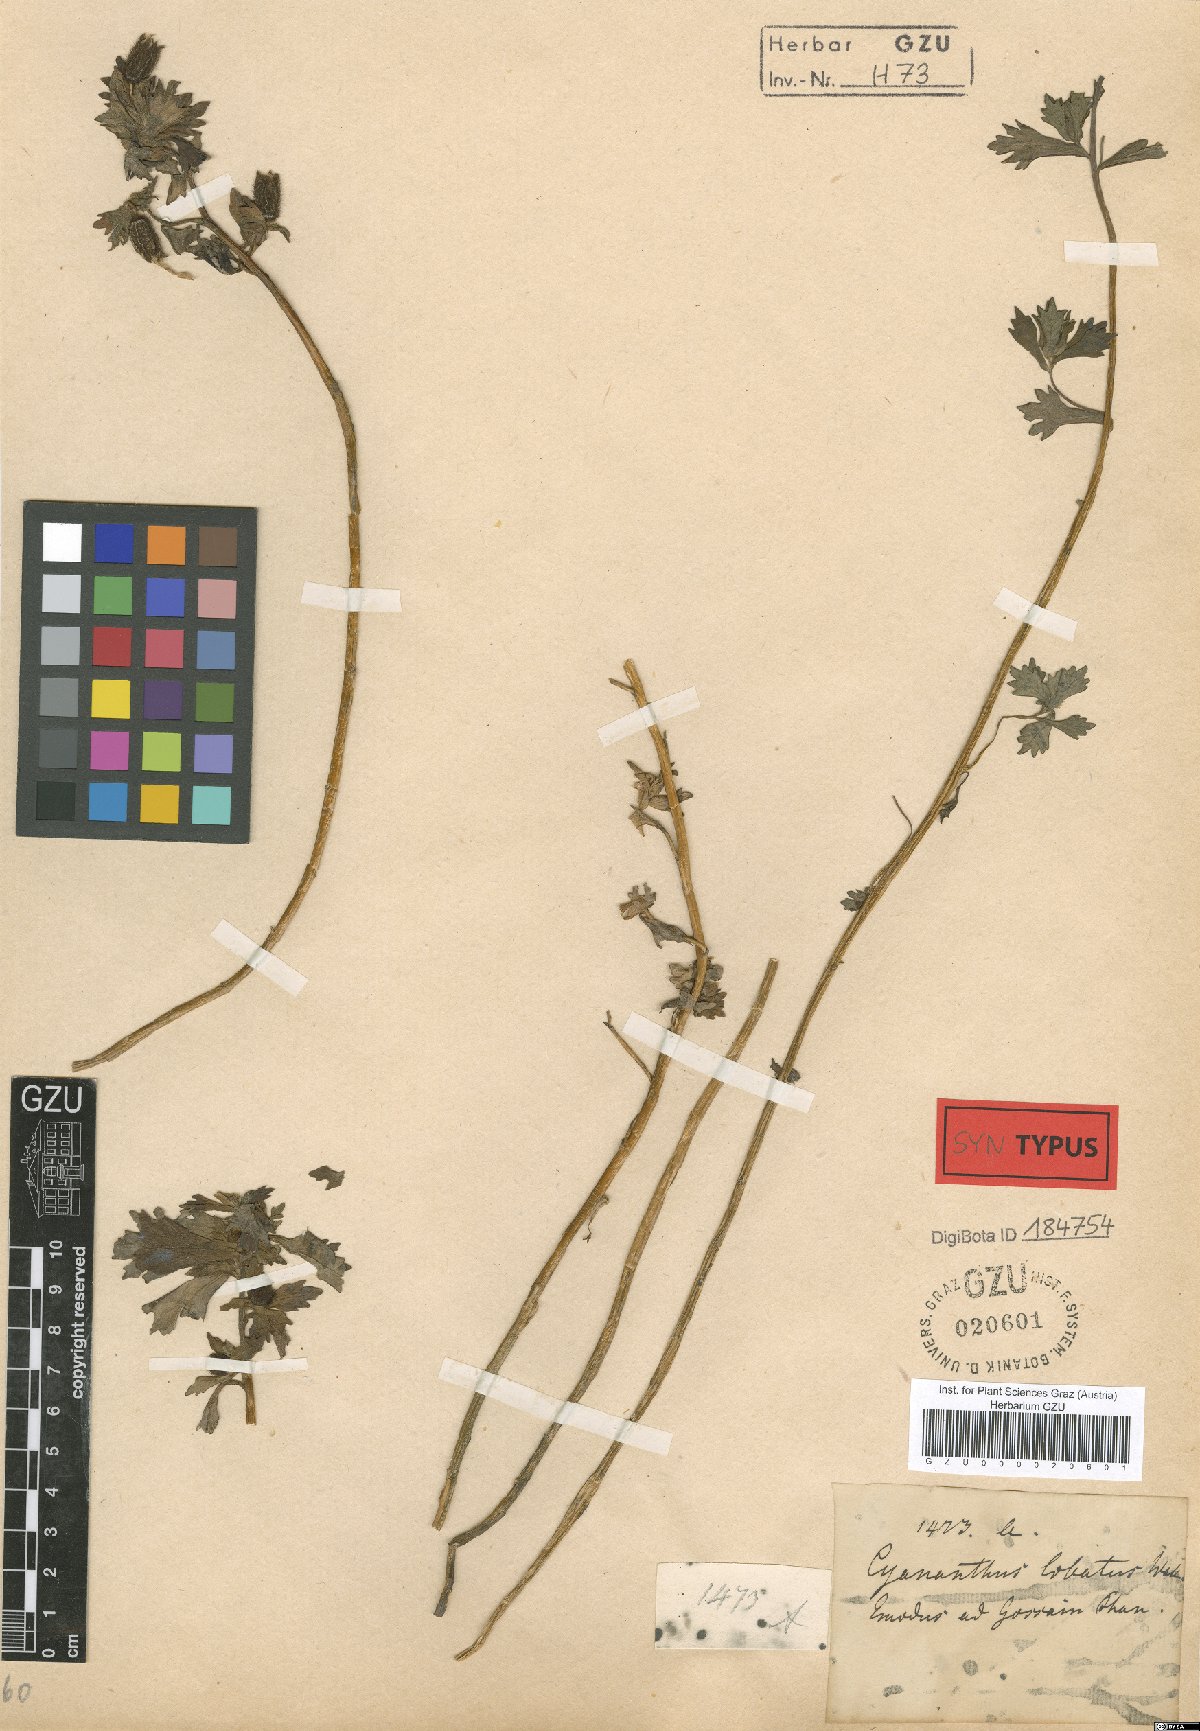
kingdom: Plantae
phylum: Tracheophyta
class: Magnoliopsida
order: Asterales
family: Campanulaceae
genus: Cyananthus
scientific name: Cyananthus lobatus
